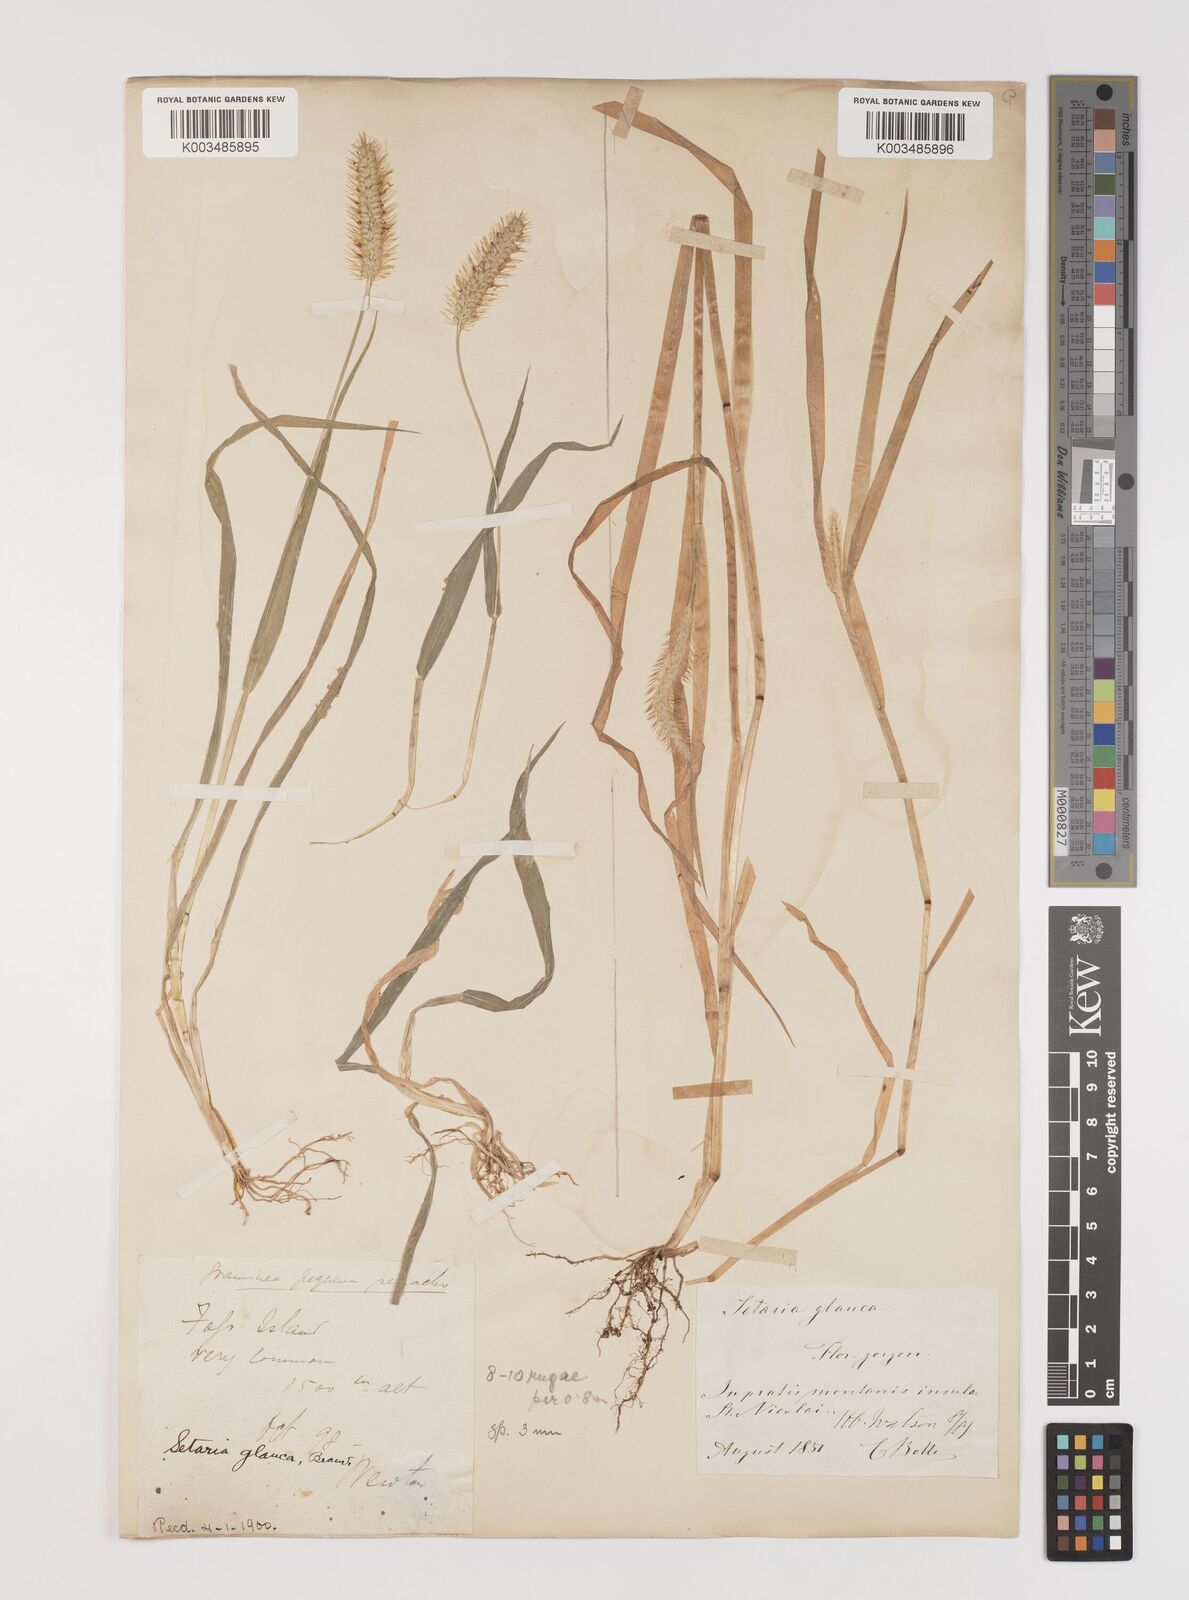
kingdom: Plantae
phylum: Tracheophyta
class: Liliopsida
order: Poales
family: Poaceae
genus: Setaria
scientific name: Setaria pumila
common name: Yellow bristle-grass
